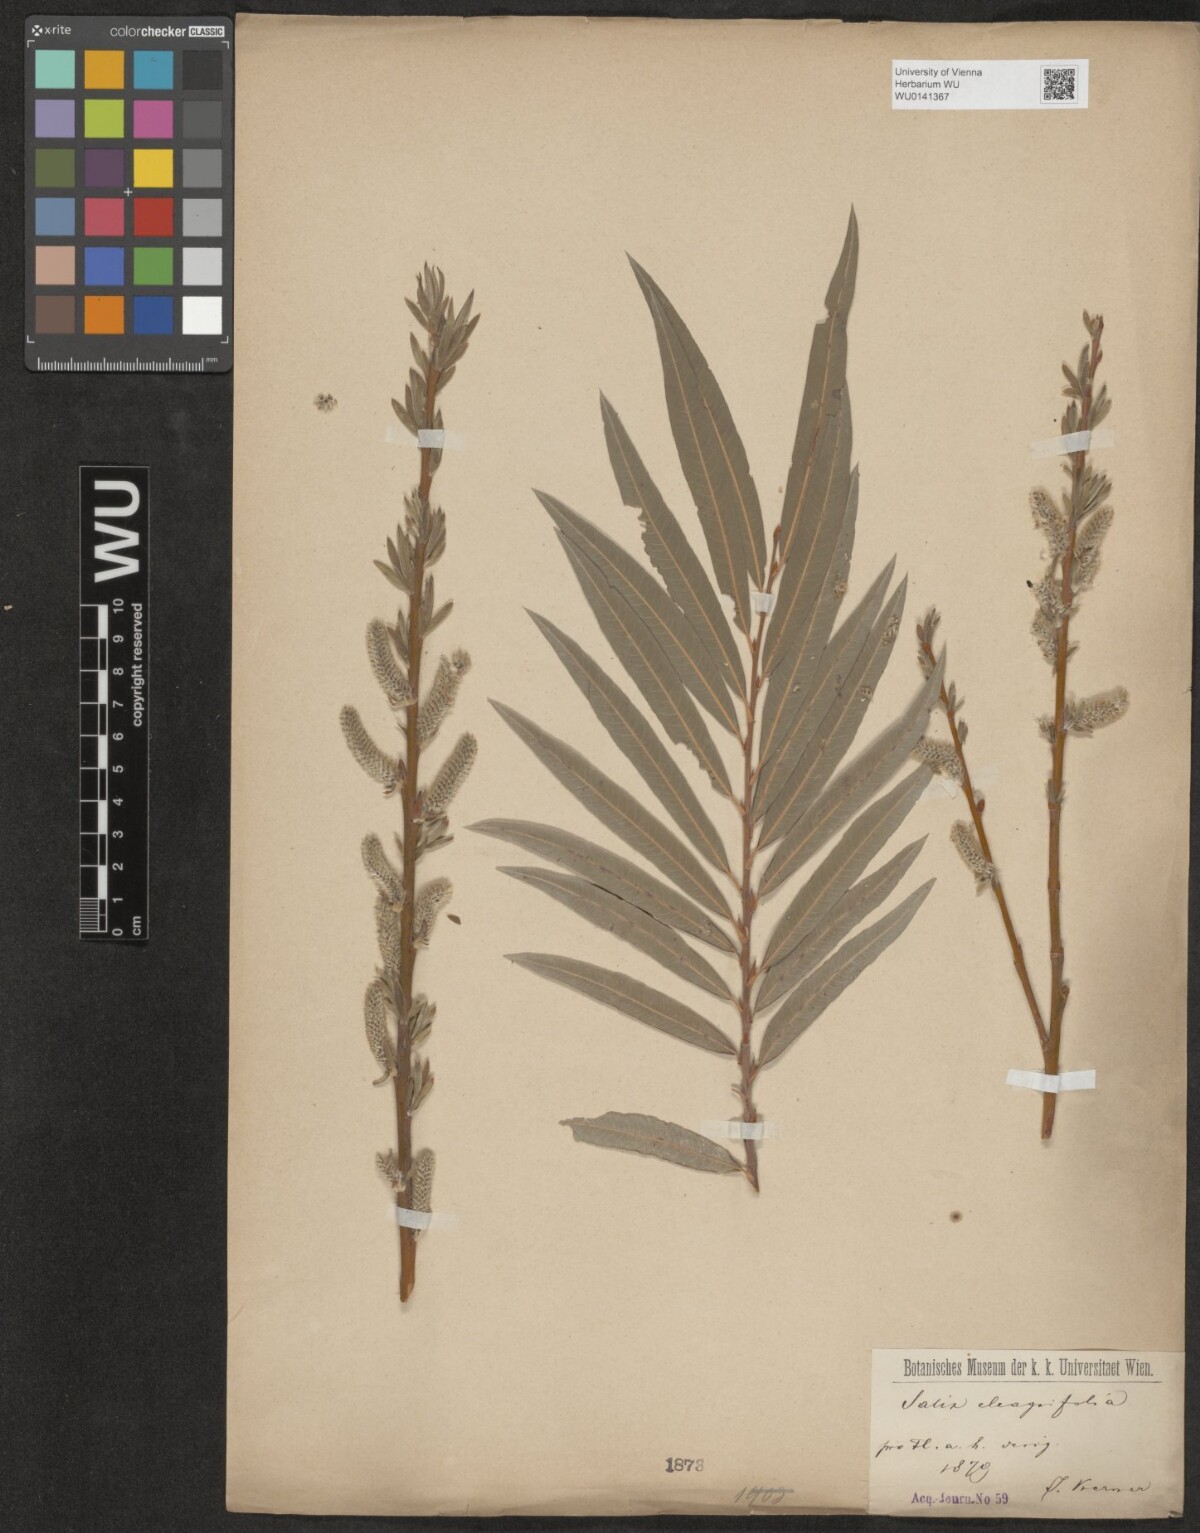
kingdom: Plantae
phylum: Tracheophyta
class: Magnoliopsida
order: Malpighiales
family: Salicaceae
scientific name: Salicaceae
